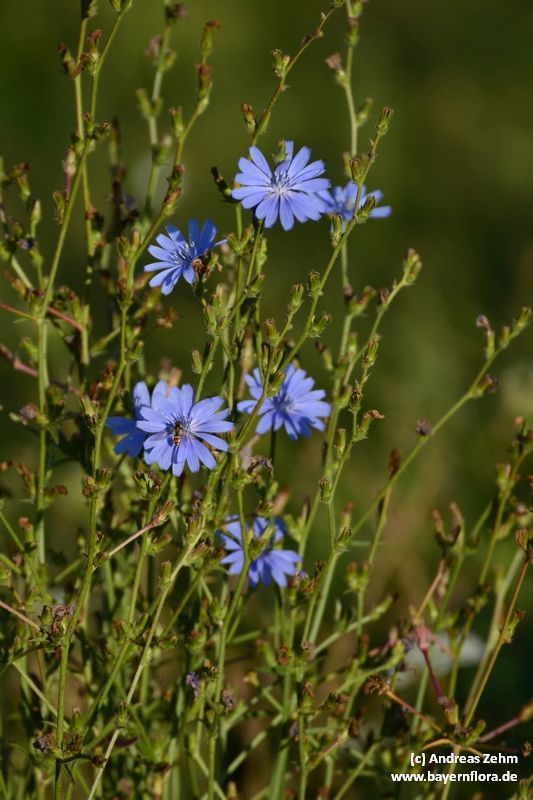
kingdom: Plantae
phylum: Tracheophyta
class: Magnoliopsida
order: Asterales
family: Asteraceae
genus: Cichorium
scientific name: Cichorium intybus
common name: Chicory
